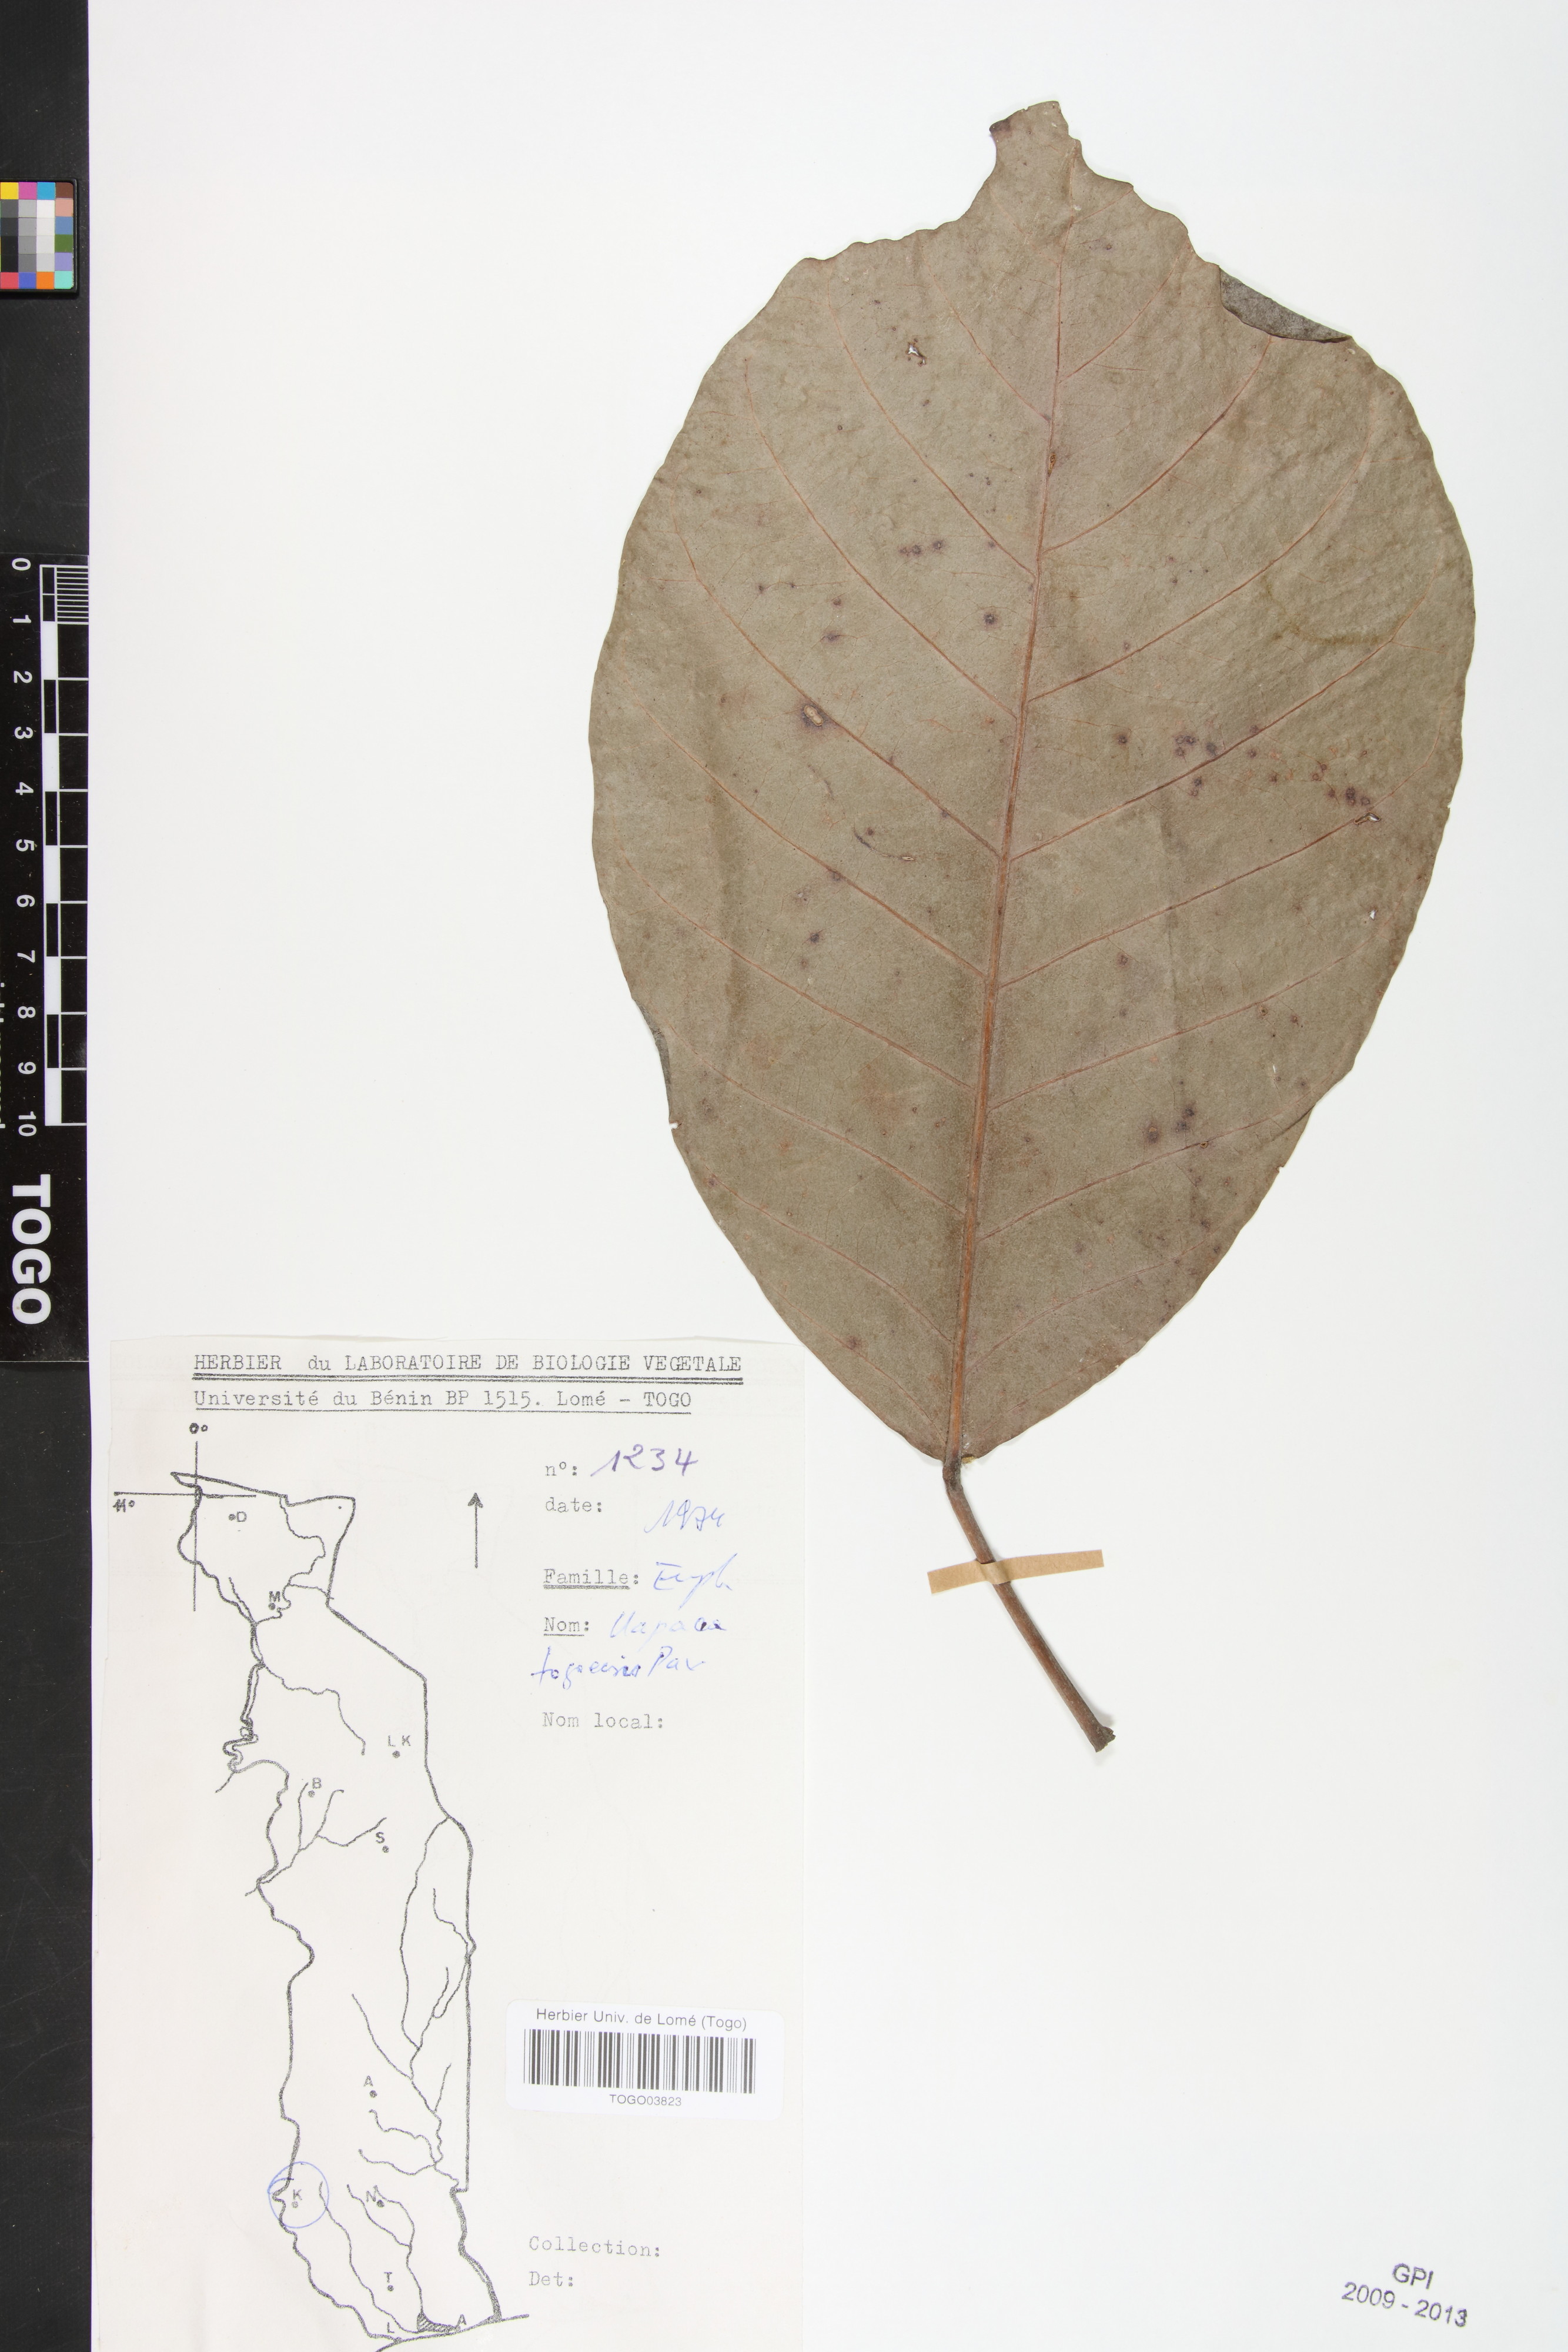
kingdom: Plantae
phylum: Tracheophyta
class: Magnoliopsida
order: Malpighiales
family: Phyllanthaceae
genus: Uapaca
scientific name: Uapaca togoensis
